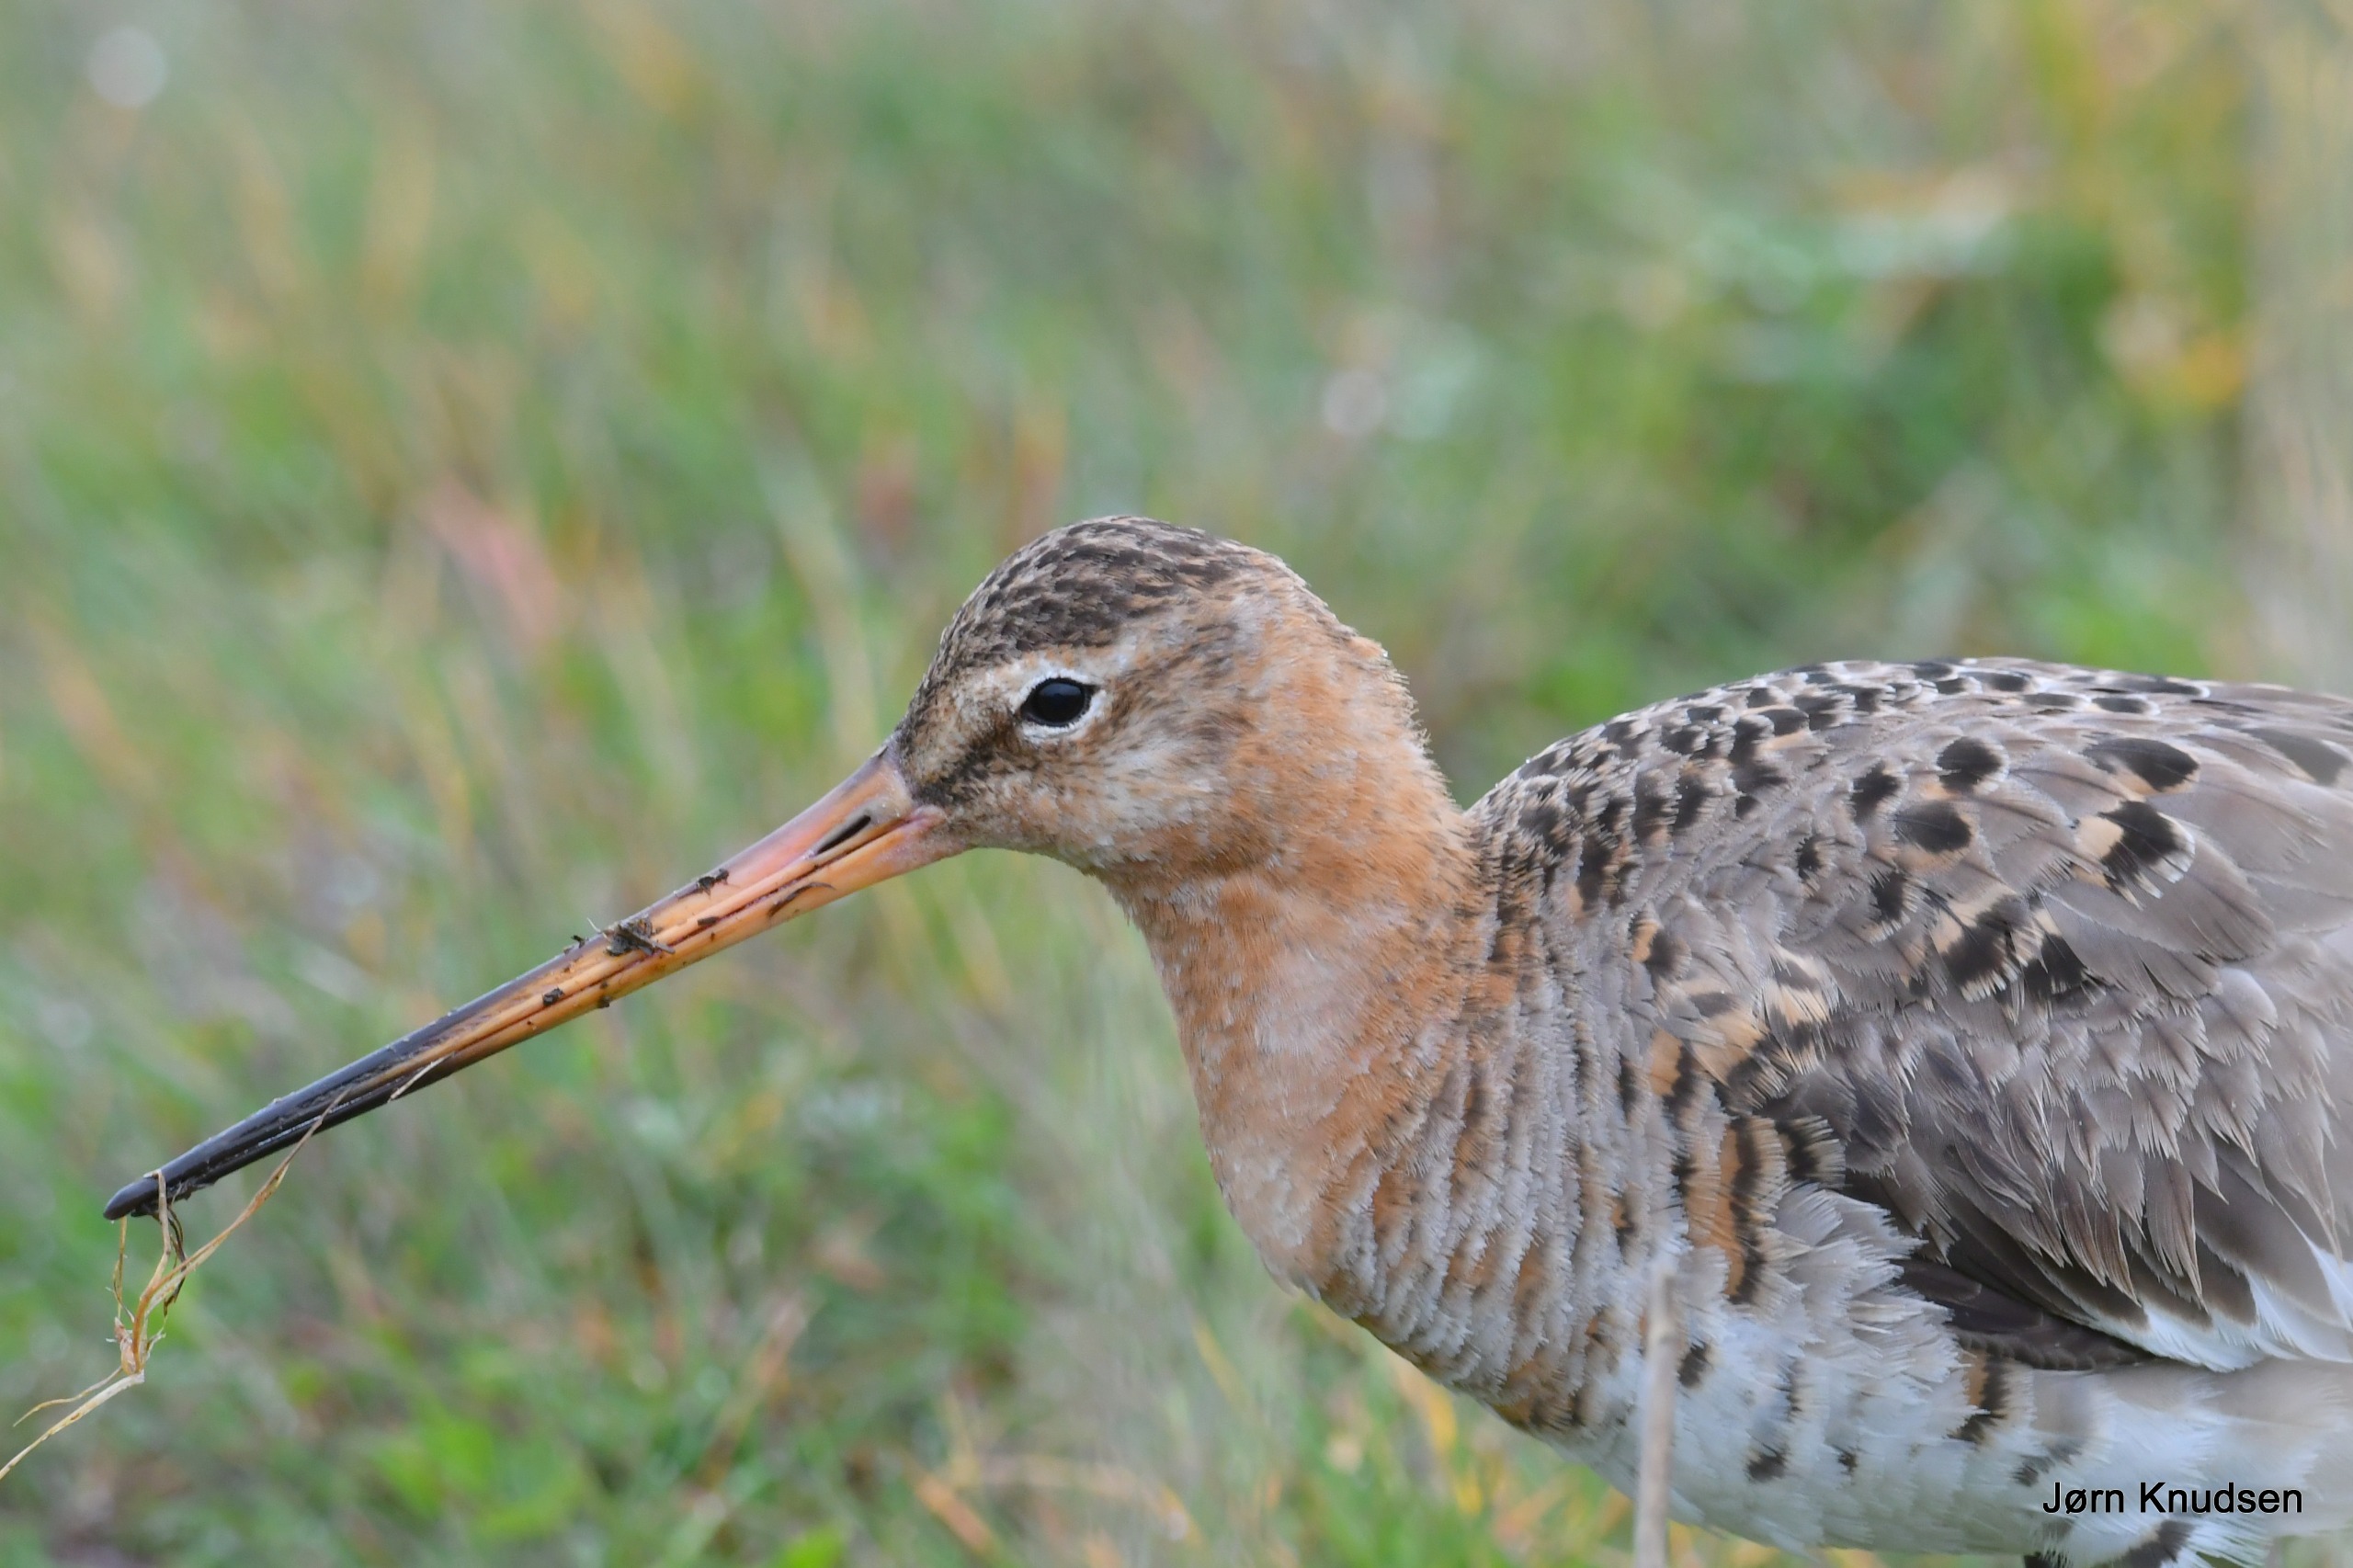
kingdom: Animalia
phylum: Chordata
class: Aves
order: Charadriiformes
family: Scolopacidae
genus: Limosa
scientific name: Limosa limosa
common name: Stor kobbersneppe
